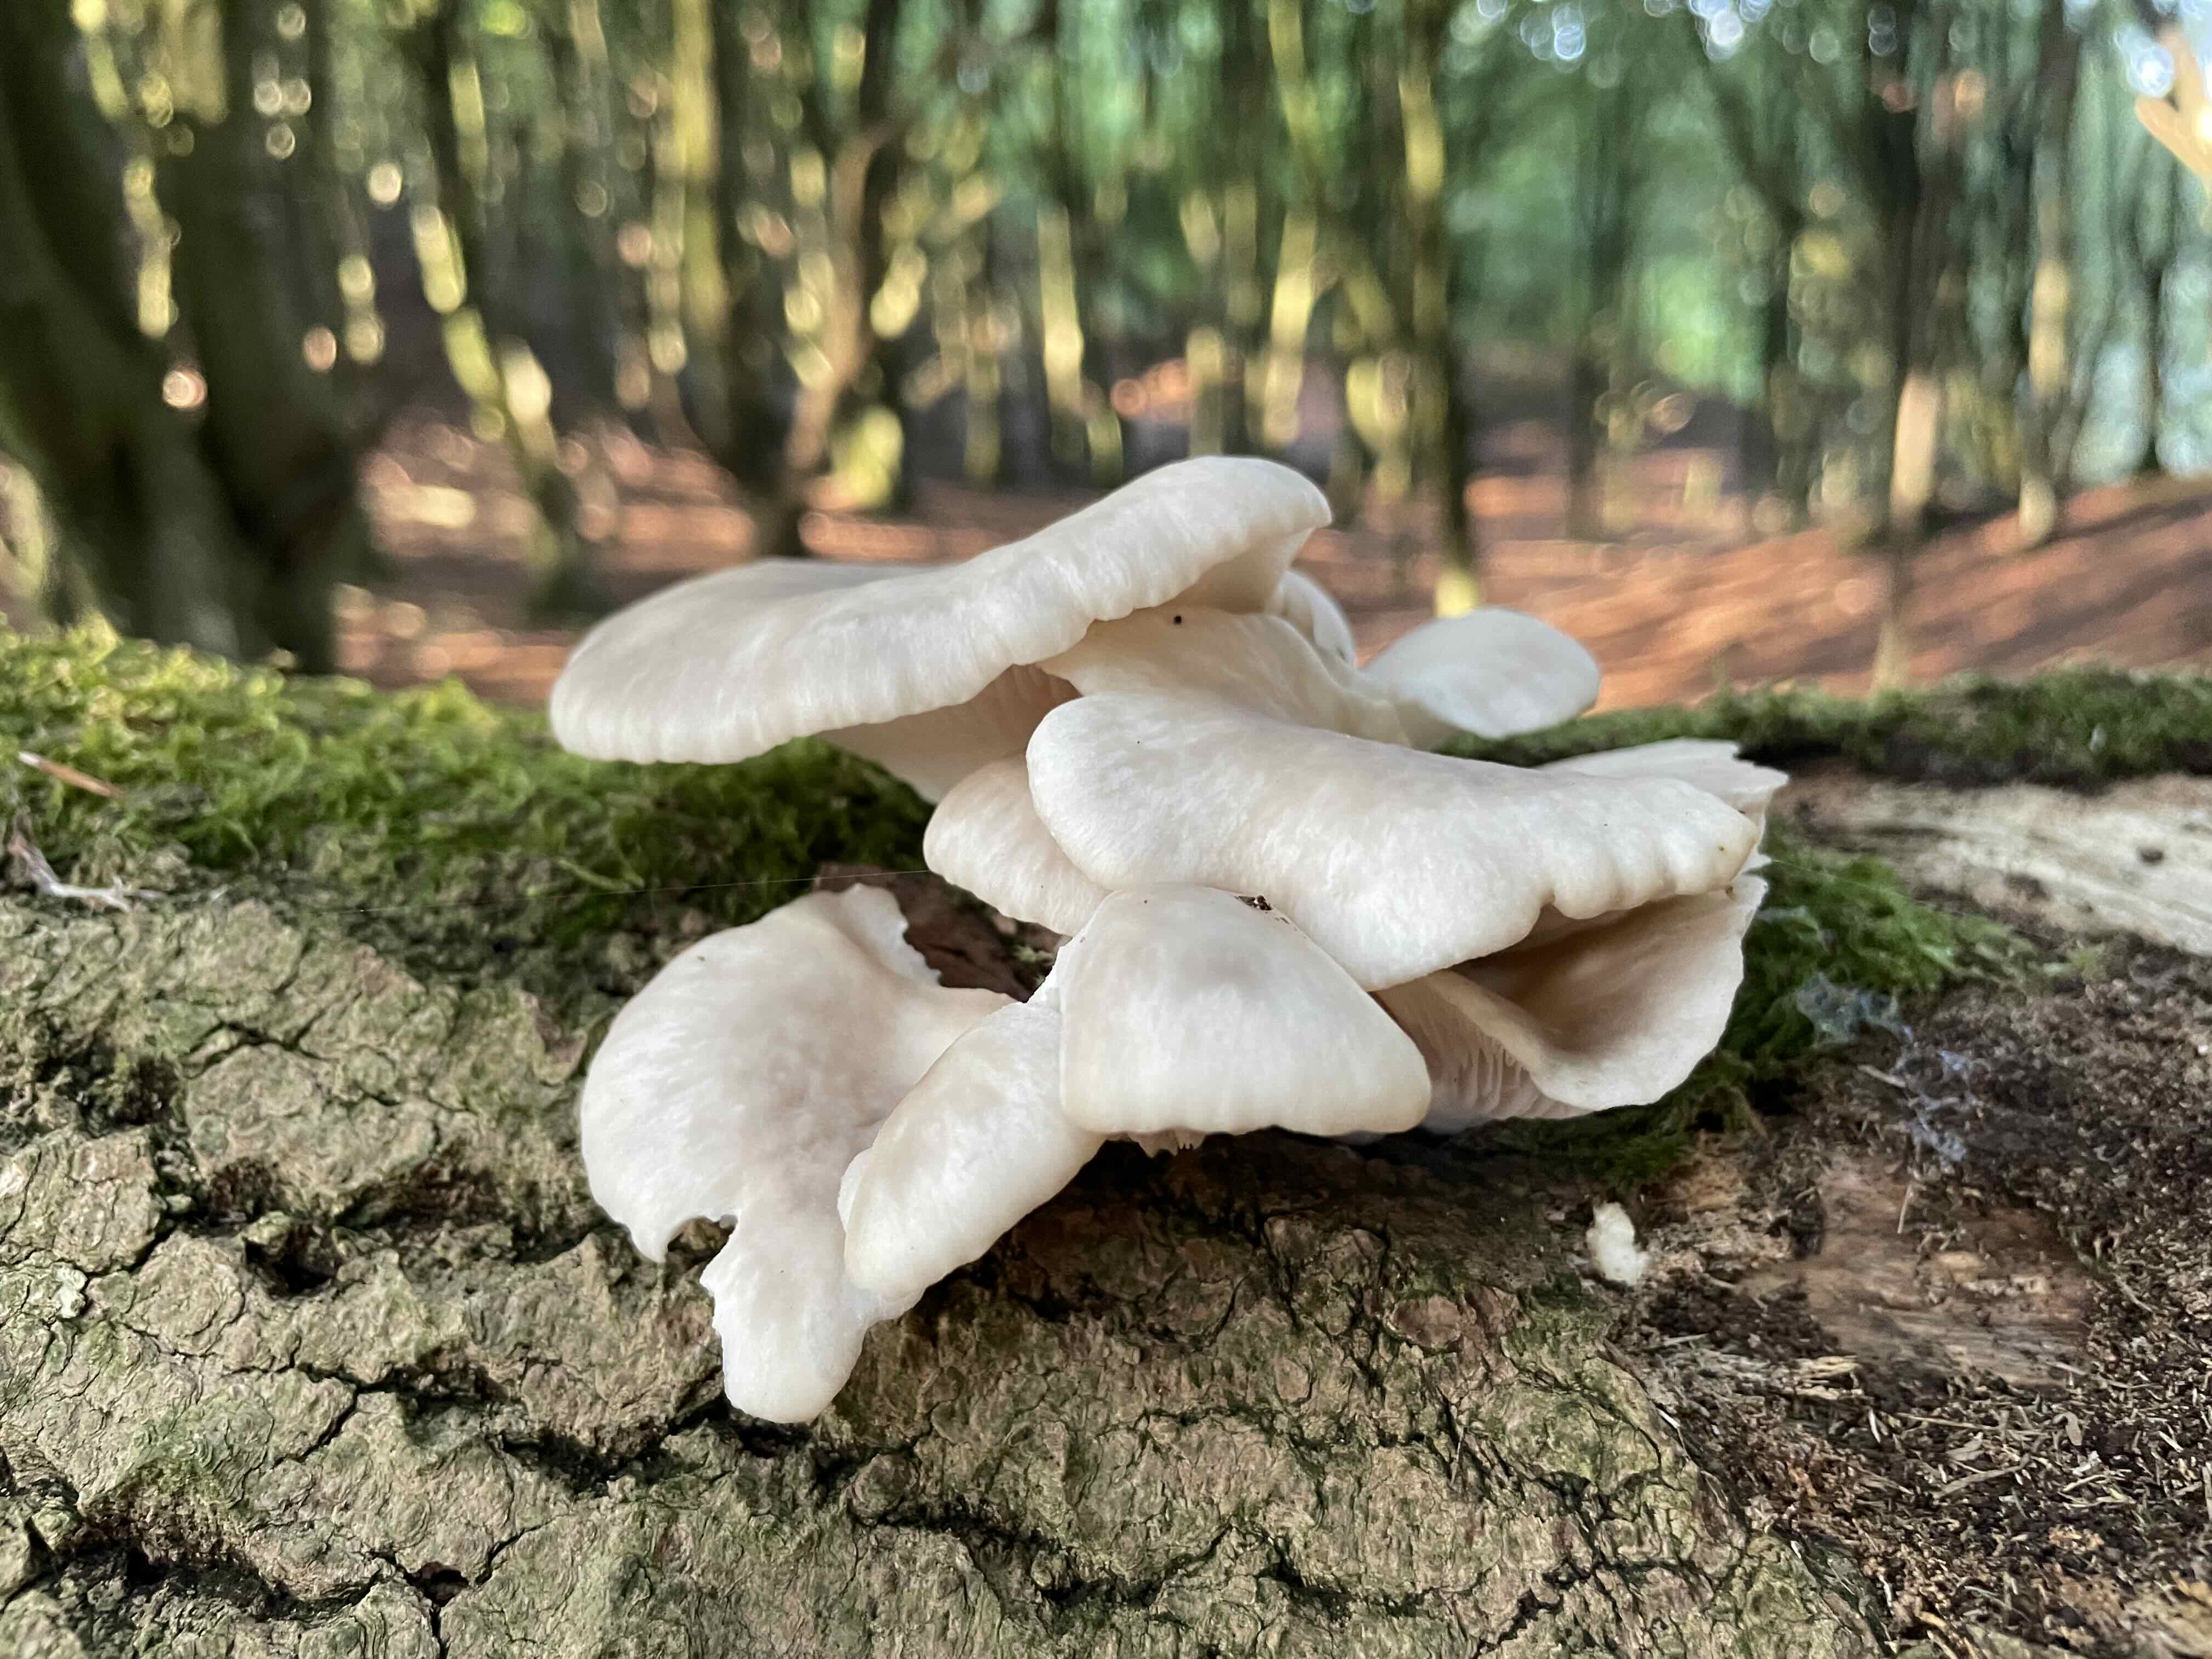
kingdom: Fungi
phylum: Basidiomycota
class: Agaricomycetes
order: Agaricales
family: Pleurotaceae
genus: Pleurotus
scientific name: Pleurotus pulmonarius
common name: sommer-østershat
